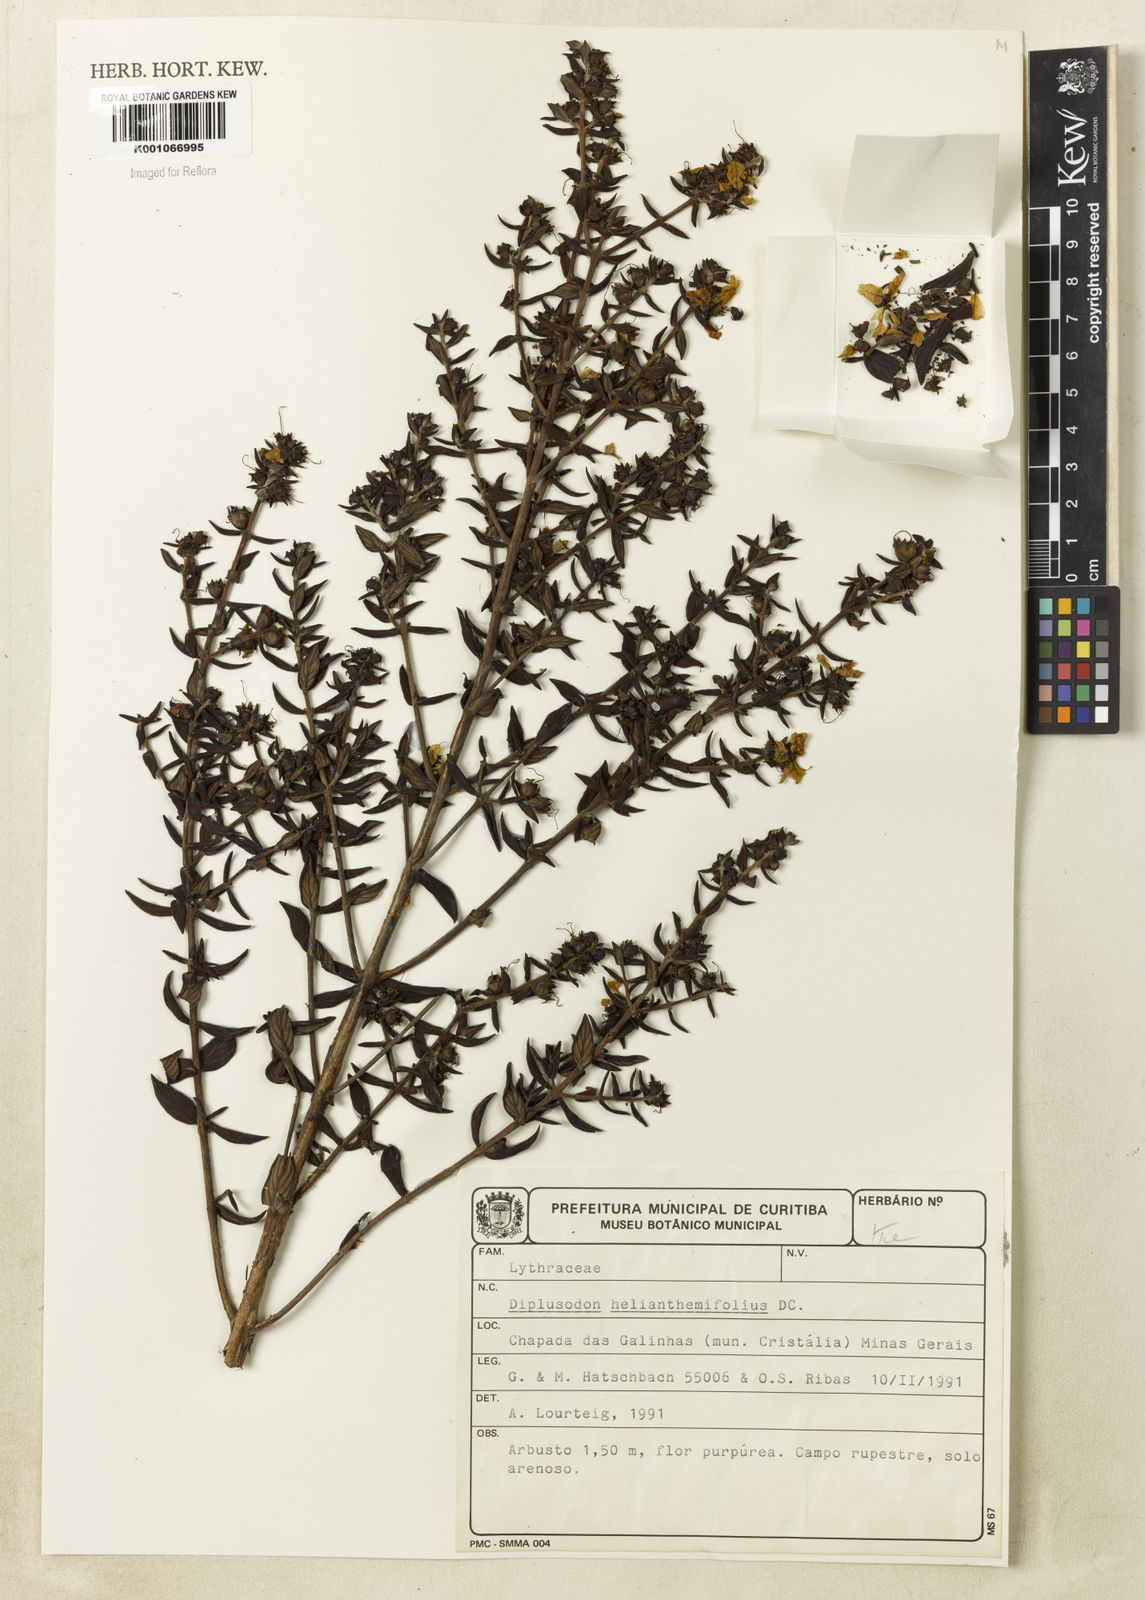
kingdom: Plantae
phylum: Tracheophyta
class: Magnoliopsida
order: Myrtales
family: Lythraceae
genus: Diplusodon
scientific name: Diplusodon helianthemifolius
